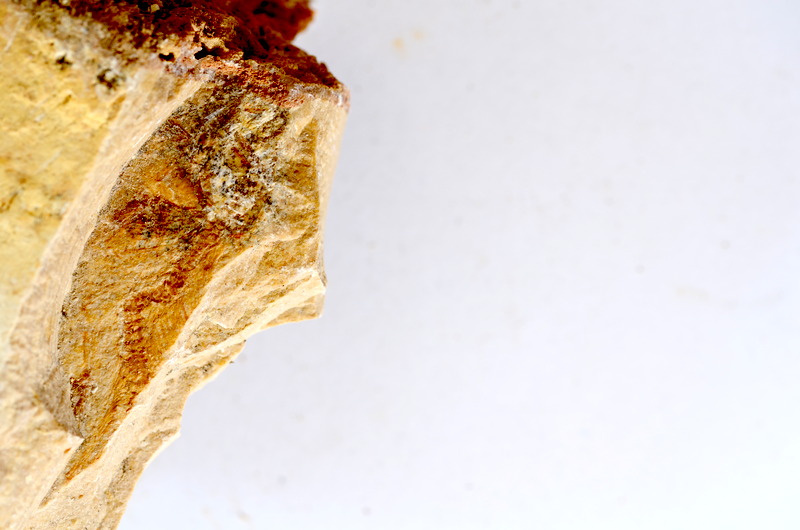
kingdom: Animalia
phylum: Chordata
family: Ascalaboidae
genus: Tharsis
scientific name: Tharsis dubius
